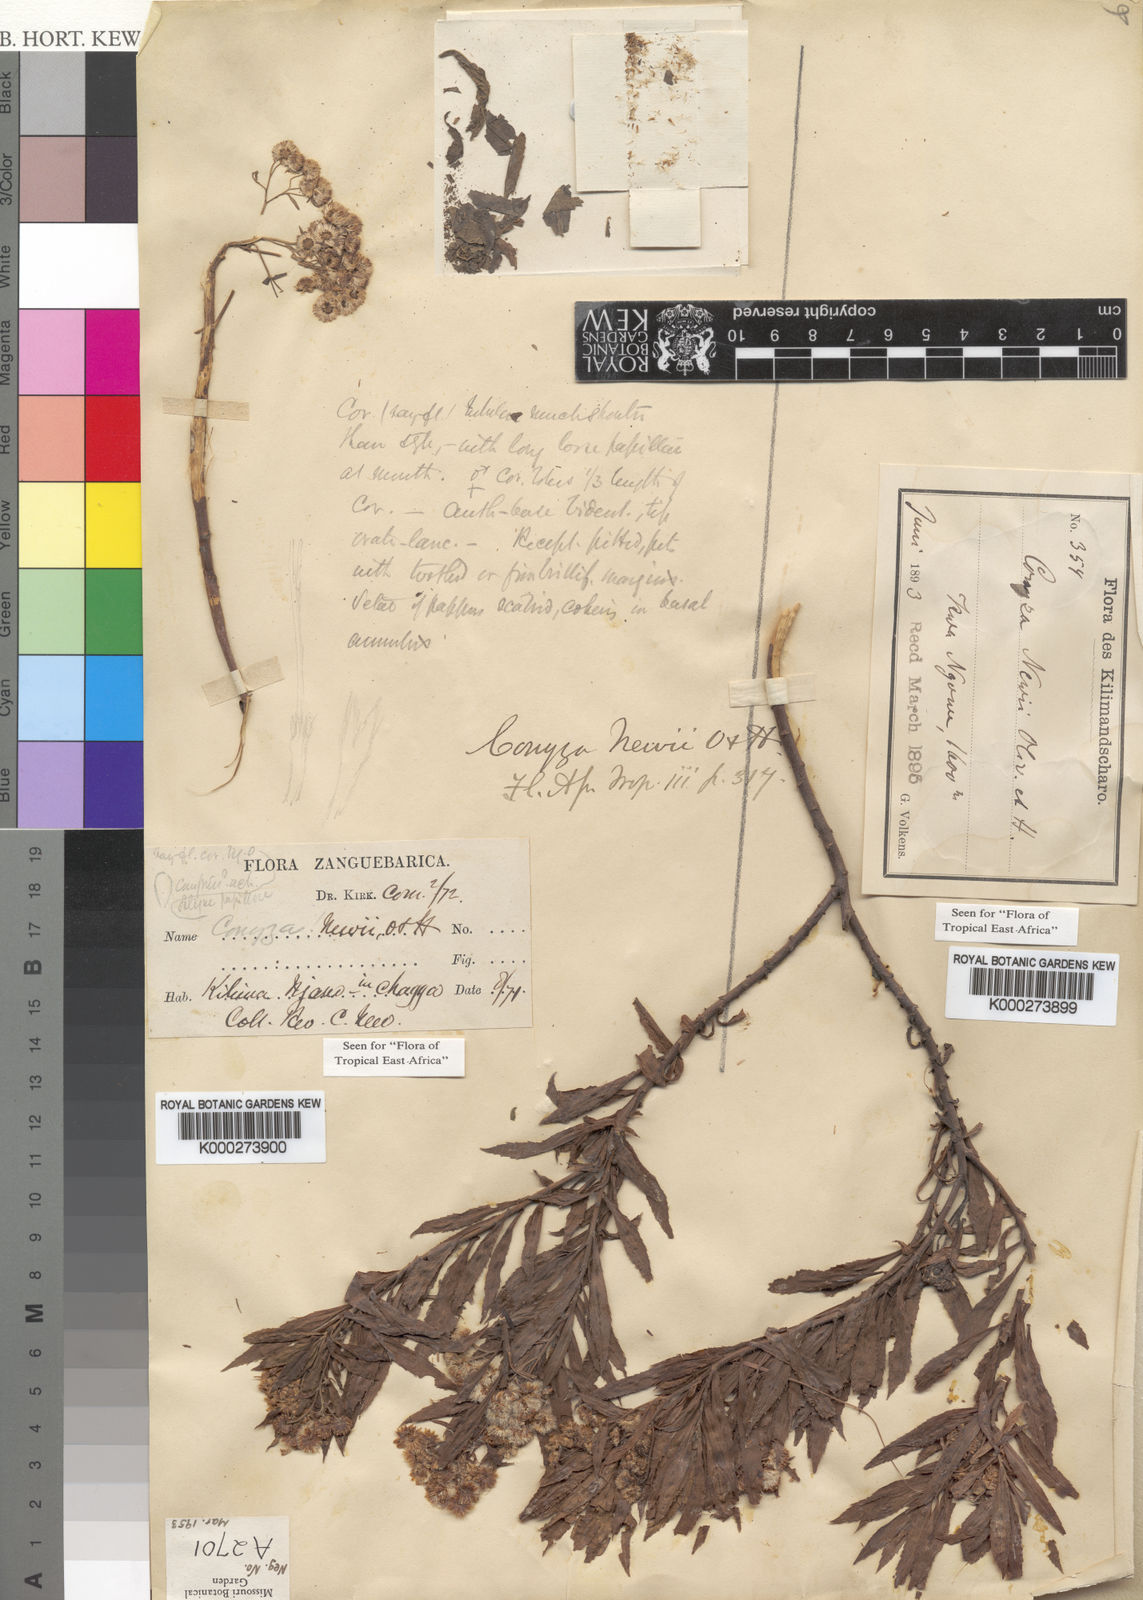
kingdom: Plantae
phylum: Tracheophyta
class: Magnoliopsida
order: Asterales
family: Asteraceae
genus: Conyza
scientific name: Conyza newii
